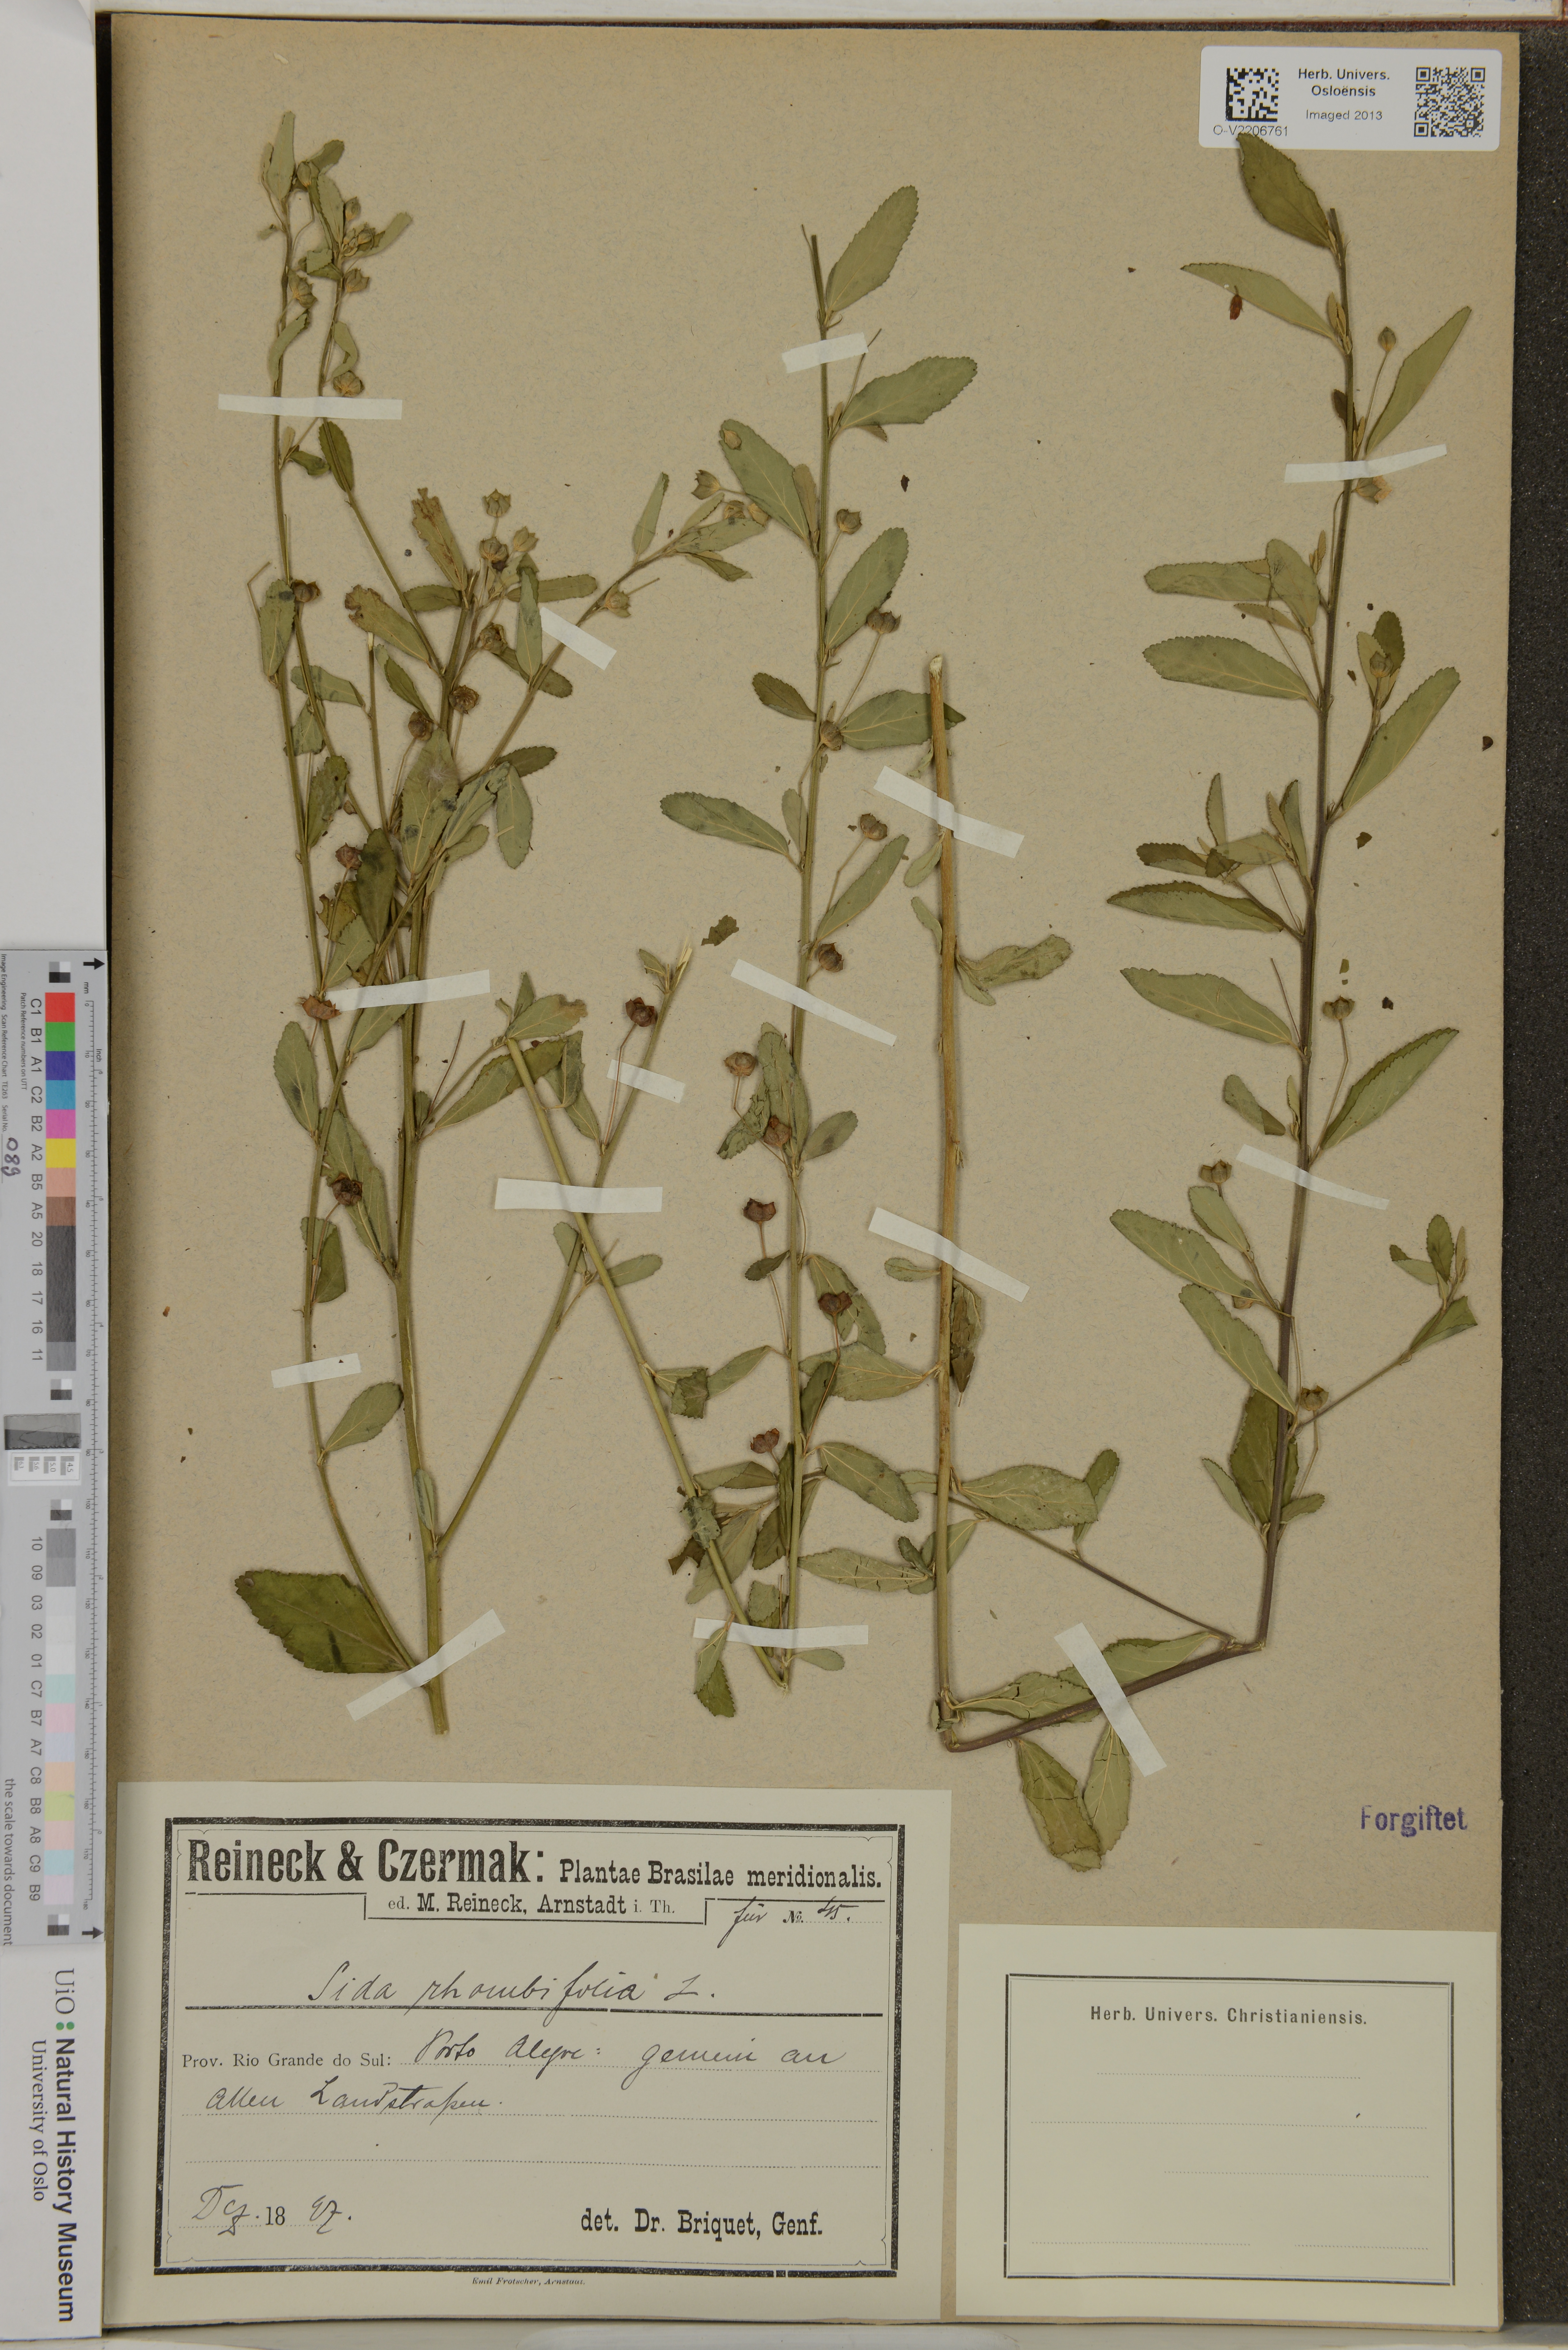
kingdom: Plantae
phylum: Tracheophyta
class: Magnoliopsida
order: Malvales
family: Malvaceae
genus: Sida
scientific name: Sida rhombifolia
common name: Queensland-hemp
